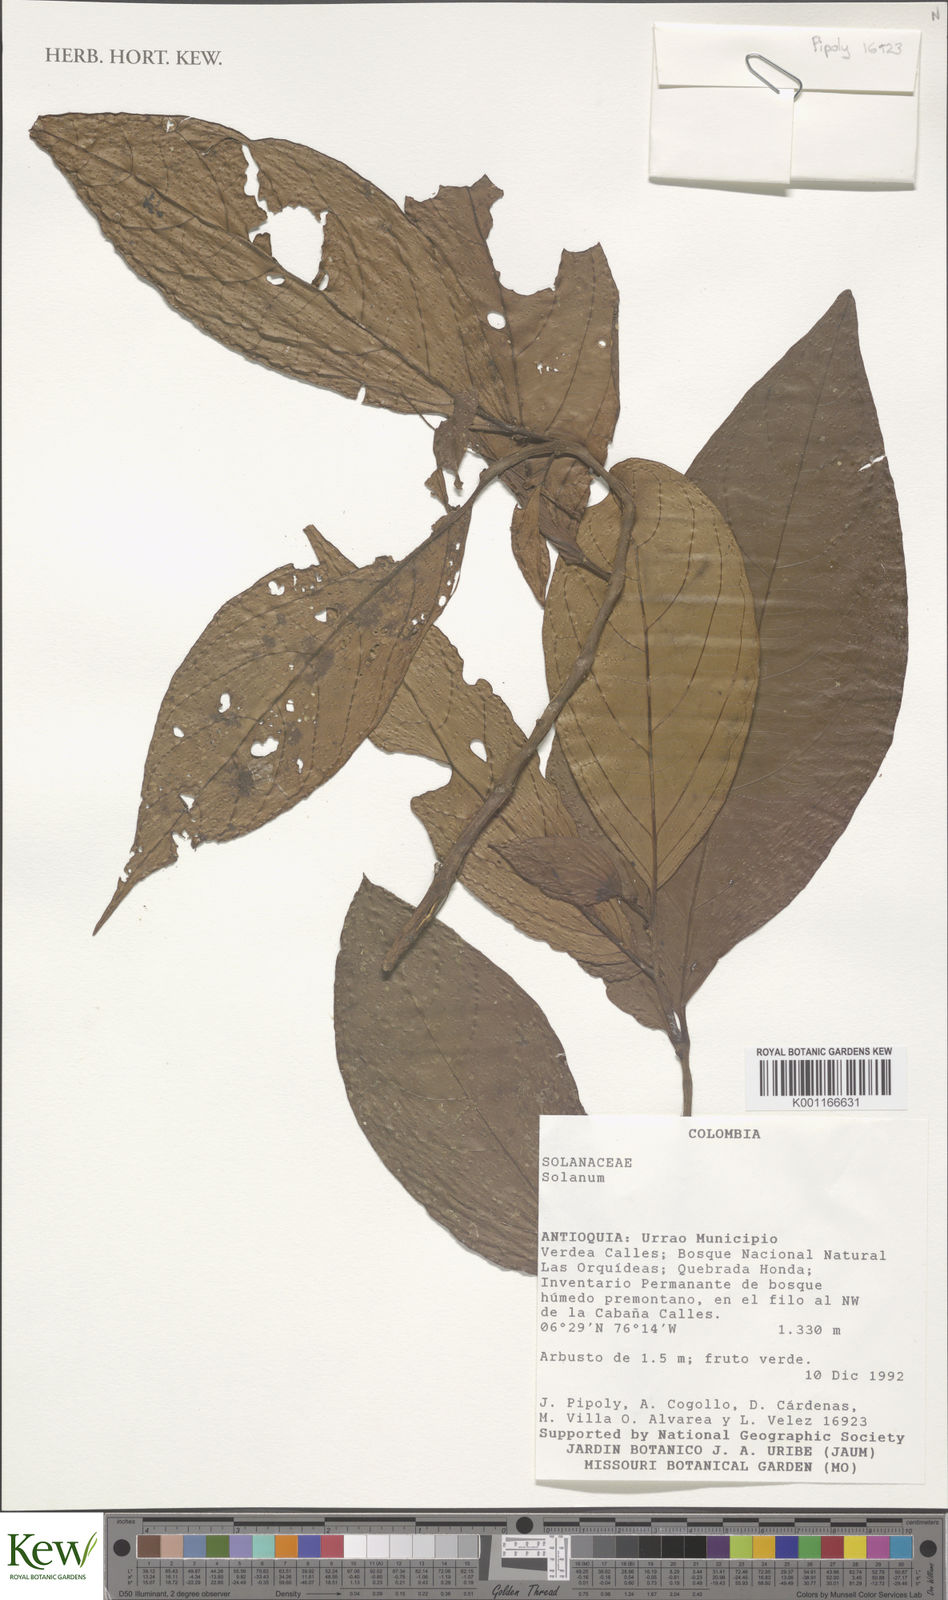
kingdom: Plantae
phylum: Tracheophyta
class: Magnoliopsida
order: Solanales
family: Solanaceae
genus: Solanum
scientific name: Solanum
